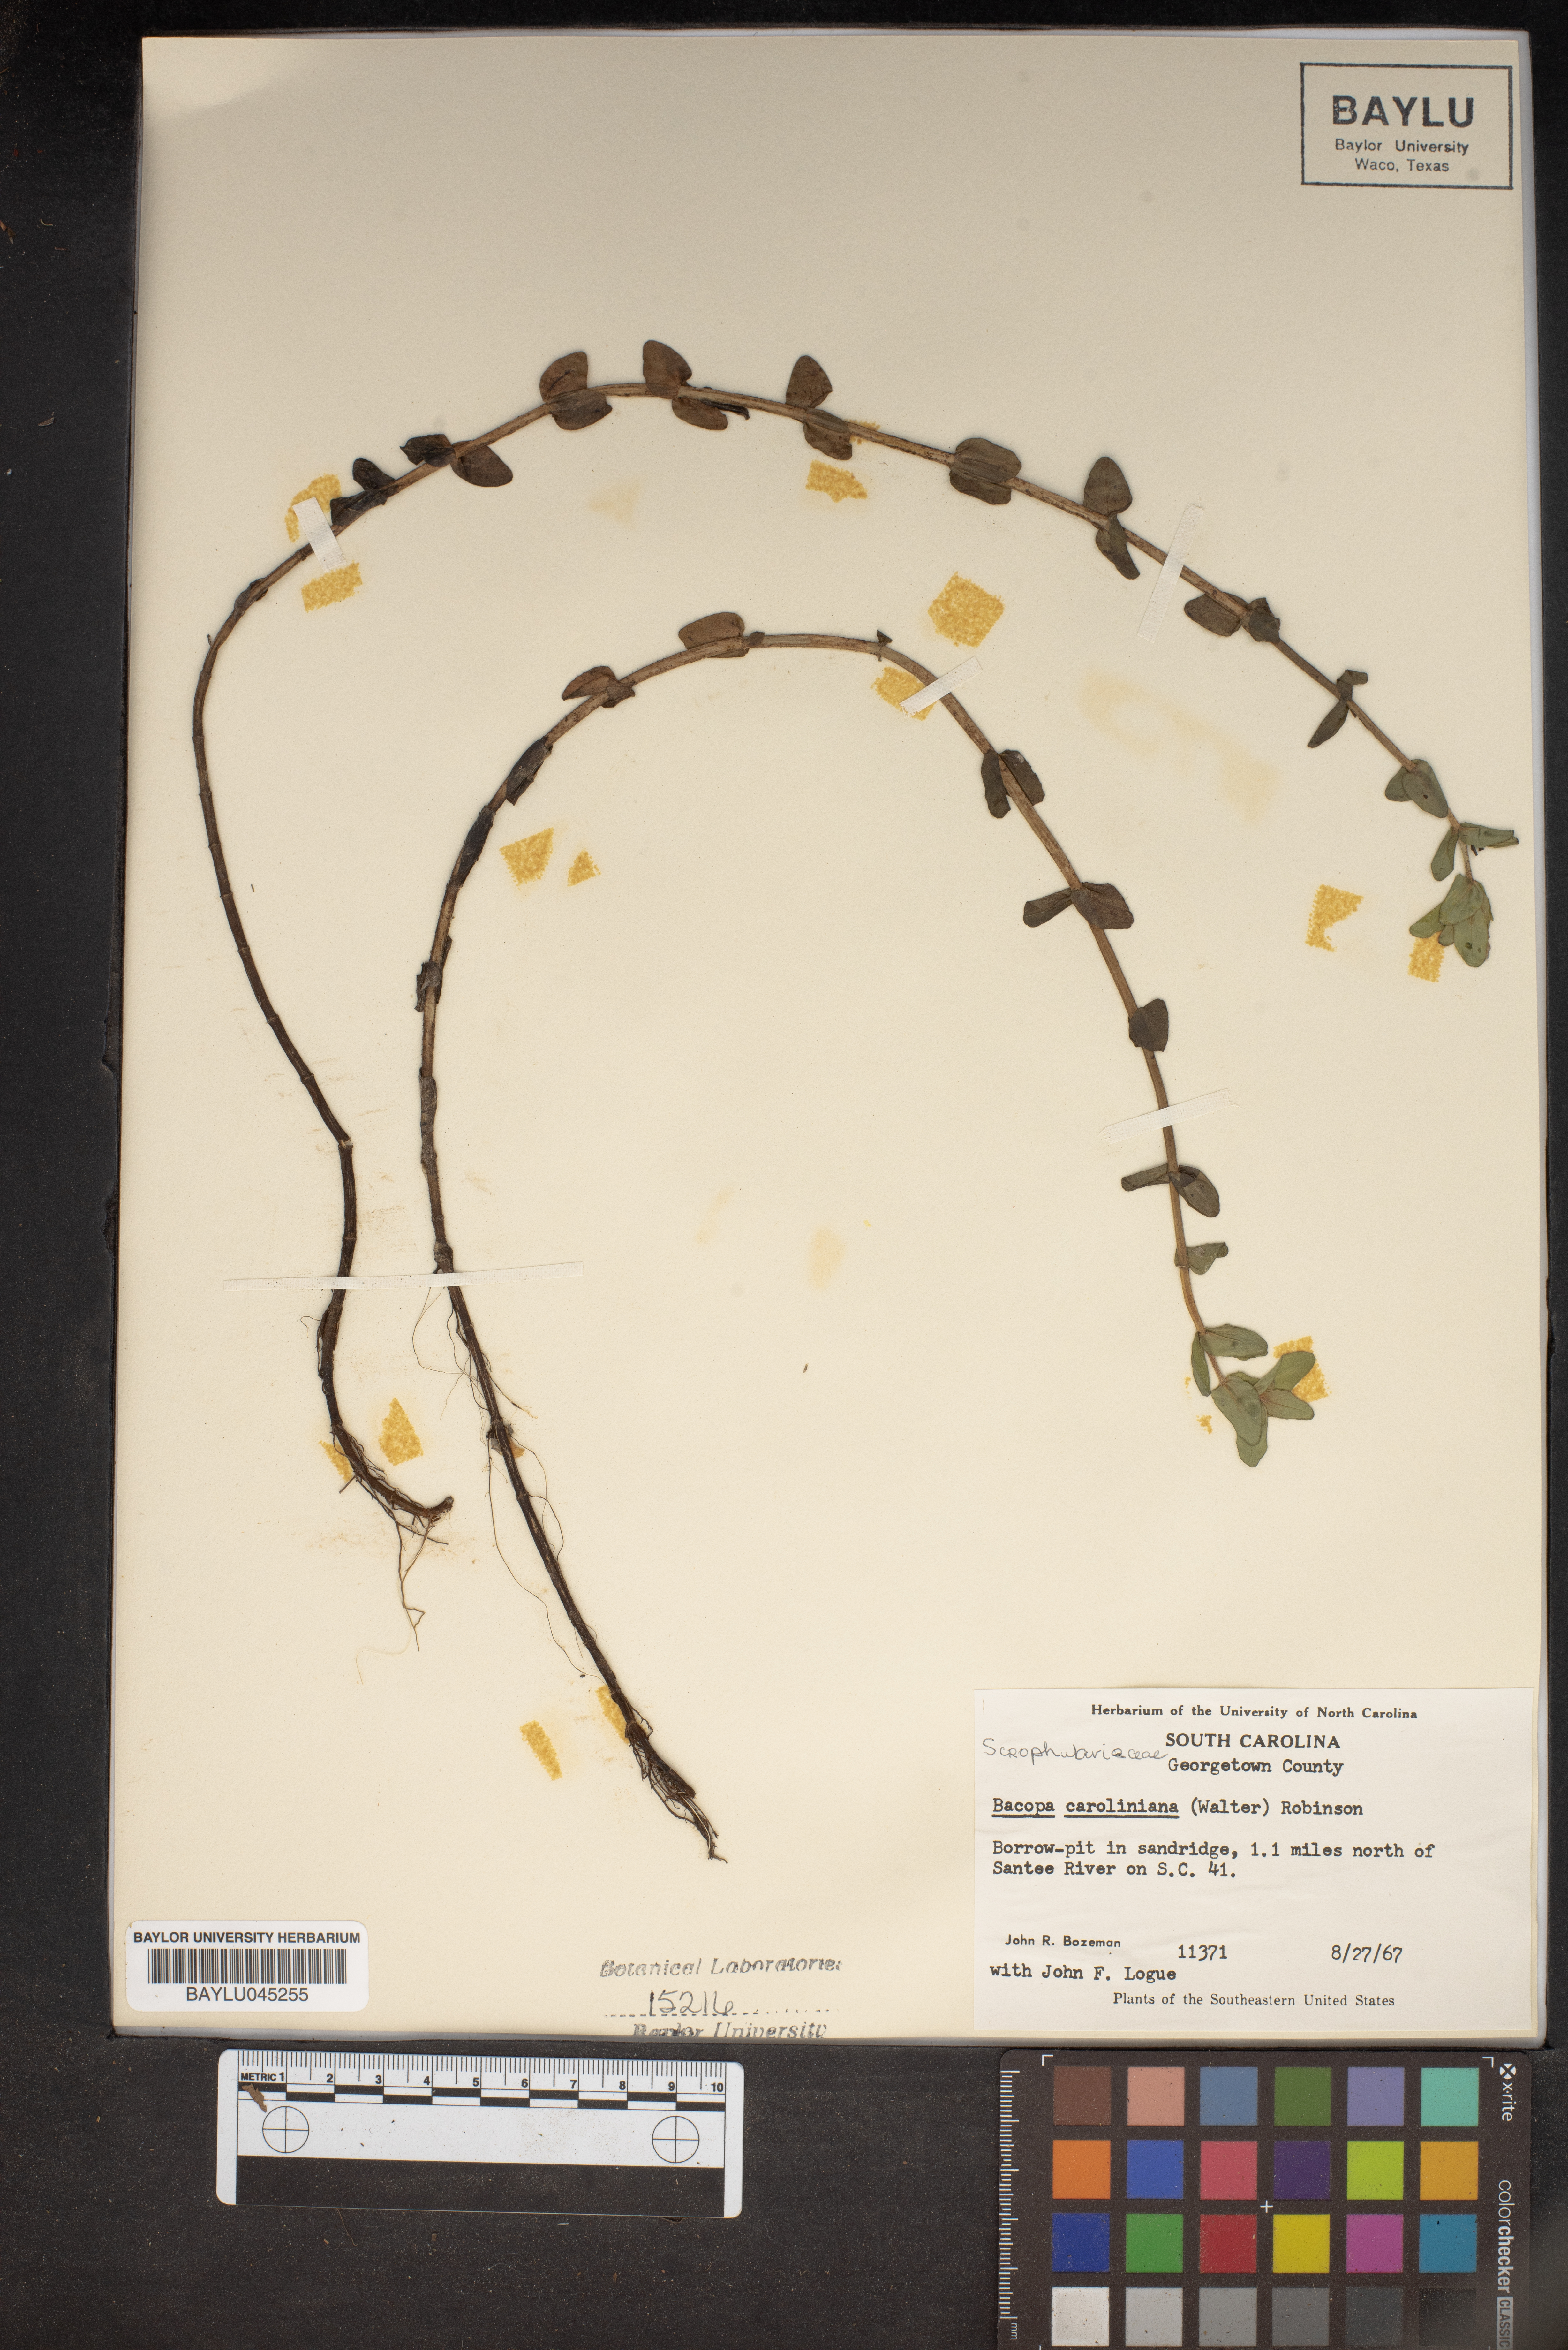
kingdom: Plantae
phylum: Tracheophyta
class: Magnoliopsida
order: Lamiales
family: Plantaginaceae
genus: Bacopa
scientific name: Bacopa caroliniana
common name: Lemon bacopa
